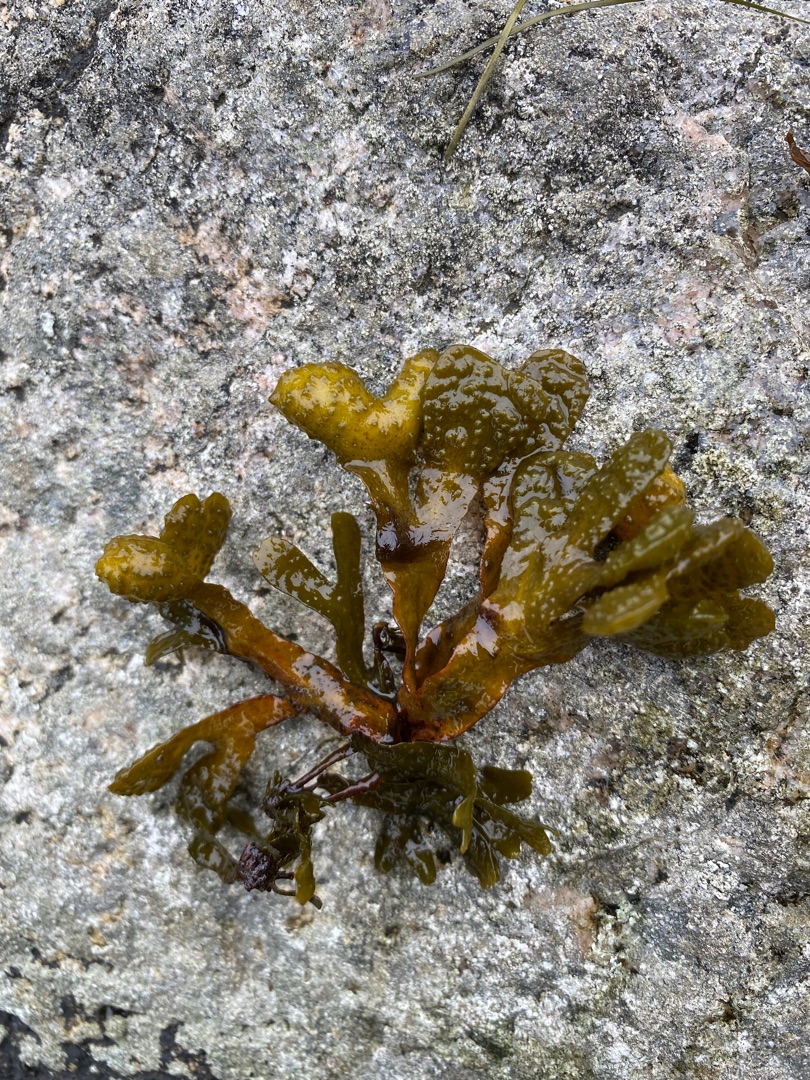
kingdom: Chromista
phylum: Ochrophyta
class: Phaeophyceae
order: Fucales
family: Fucaceae
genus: Fucus
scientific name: Fucus spiralis
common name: Lav klørtang
